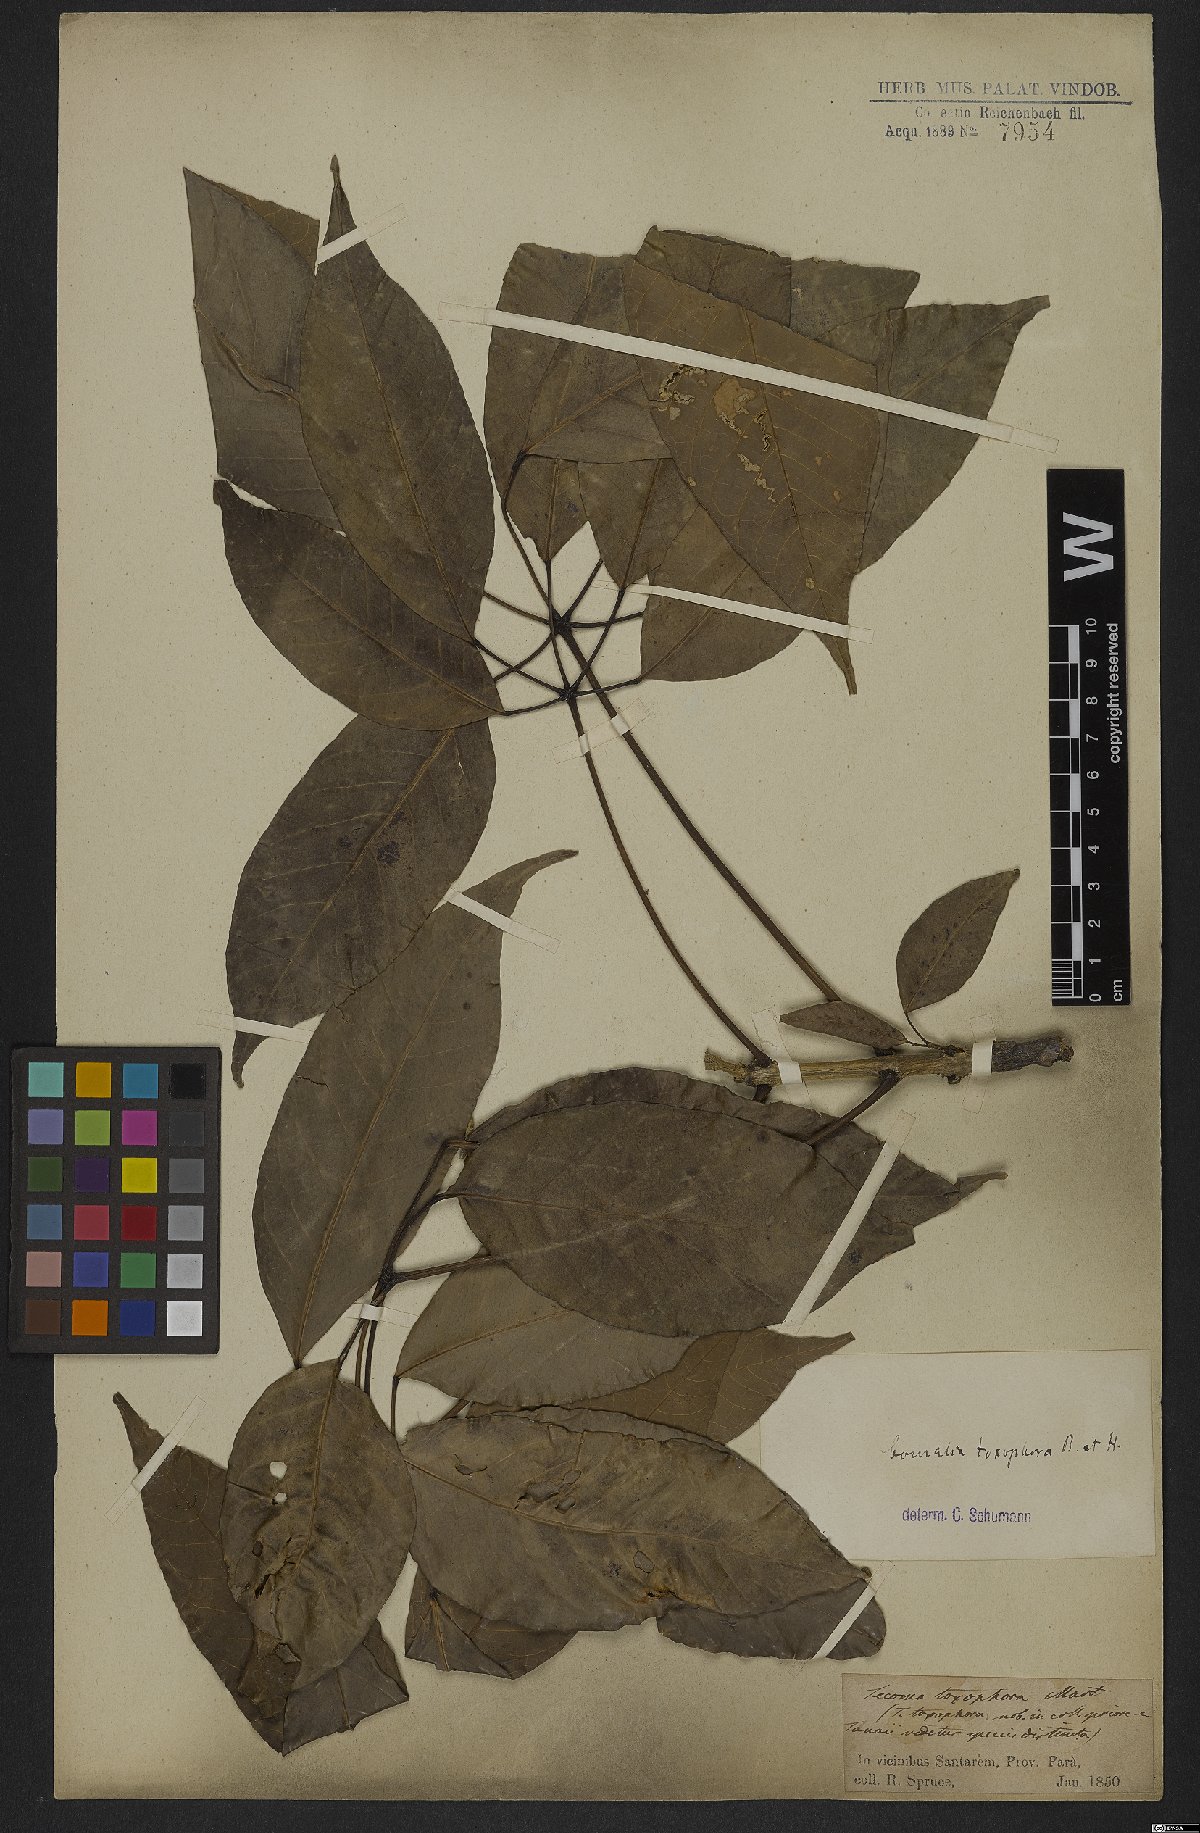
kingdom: Plantae
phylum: Tracheophyta
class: Magnoliopsida
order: Lamiales
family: Bignoniaceae
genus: Tabebuia
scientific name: Tabebuia fluviatilis
